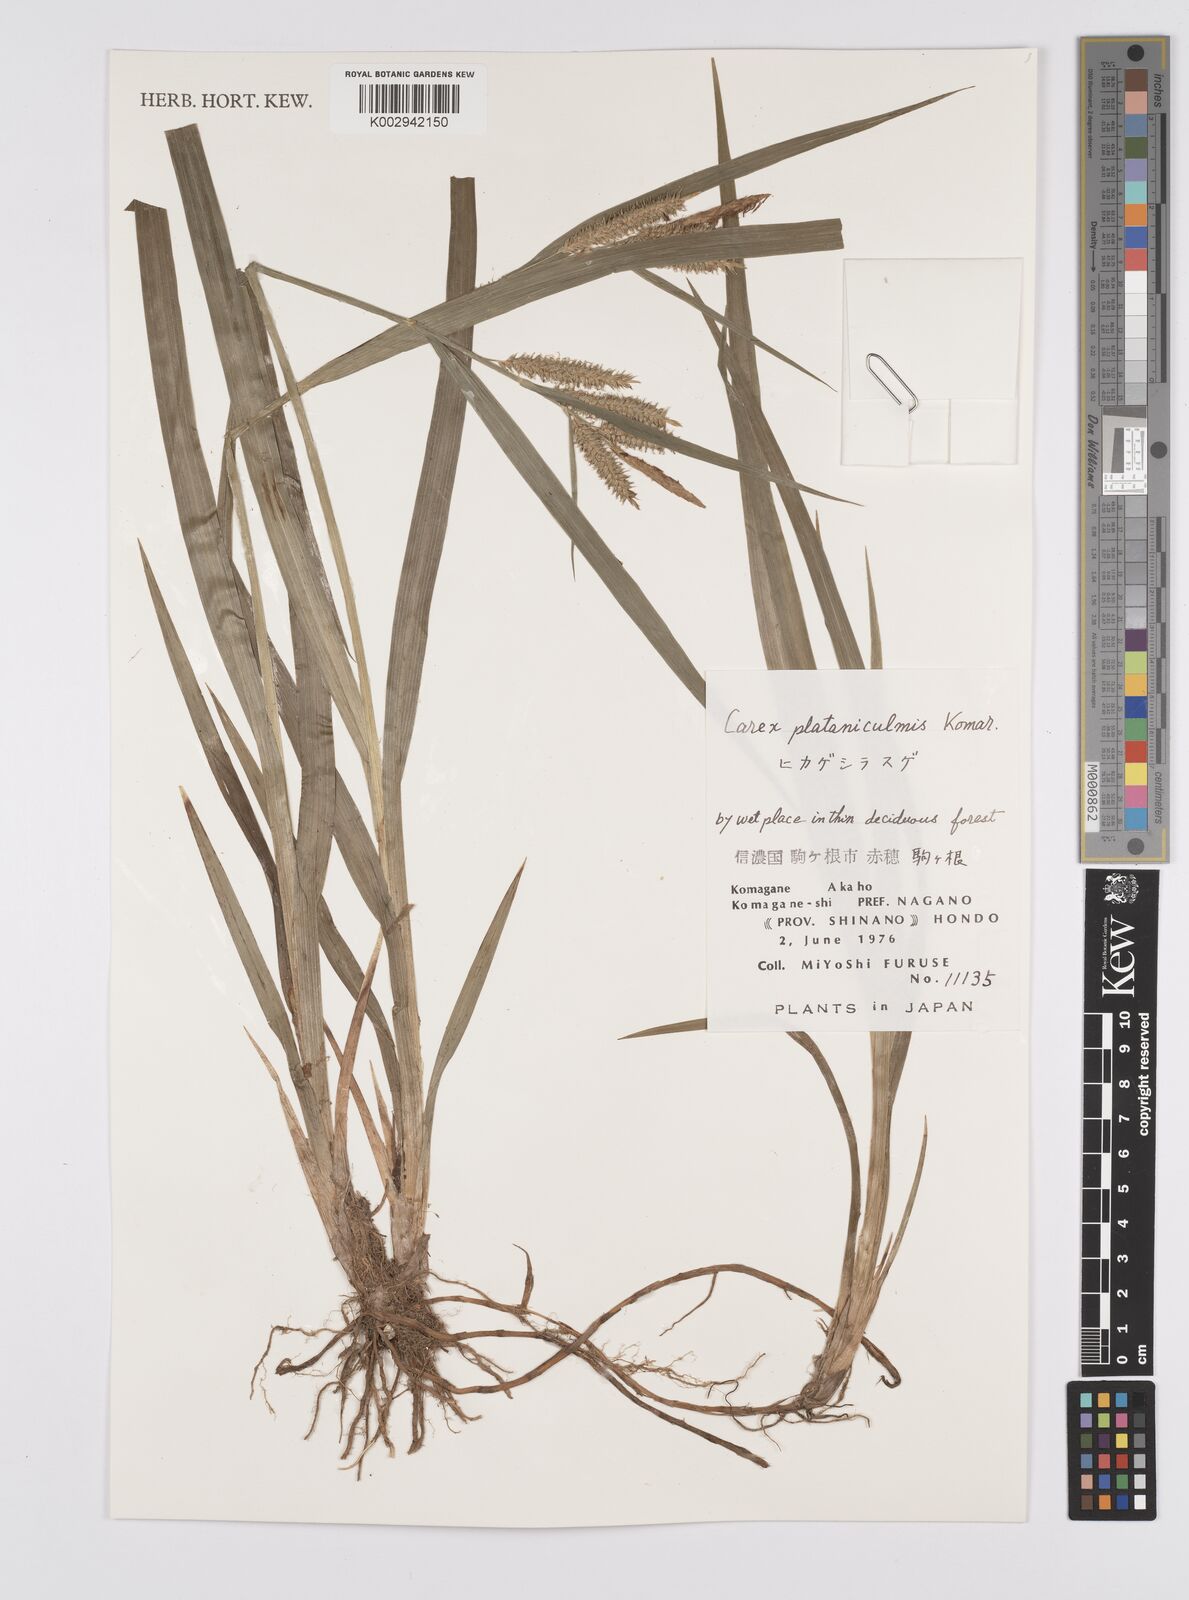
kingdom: Plantae
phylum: Tracheophyta
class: Liliopsida
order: Poales
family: Cyperaceae
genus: Carex
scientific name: Carex planiculmis
